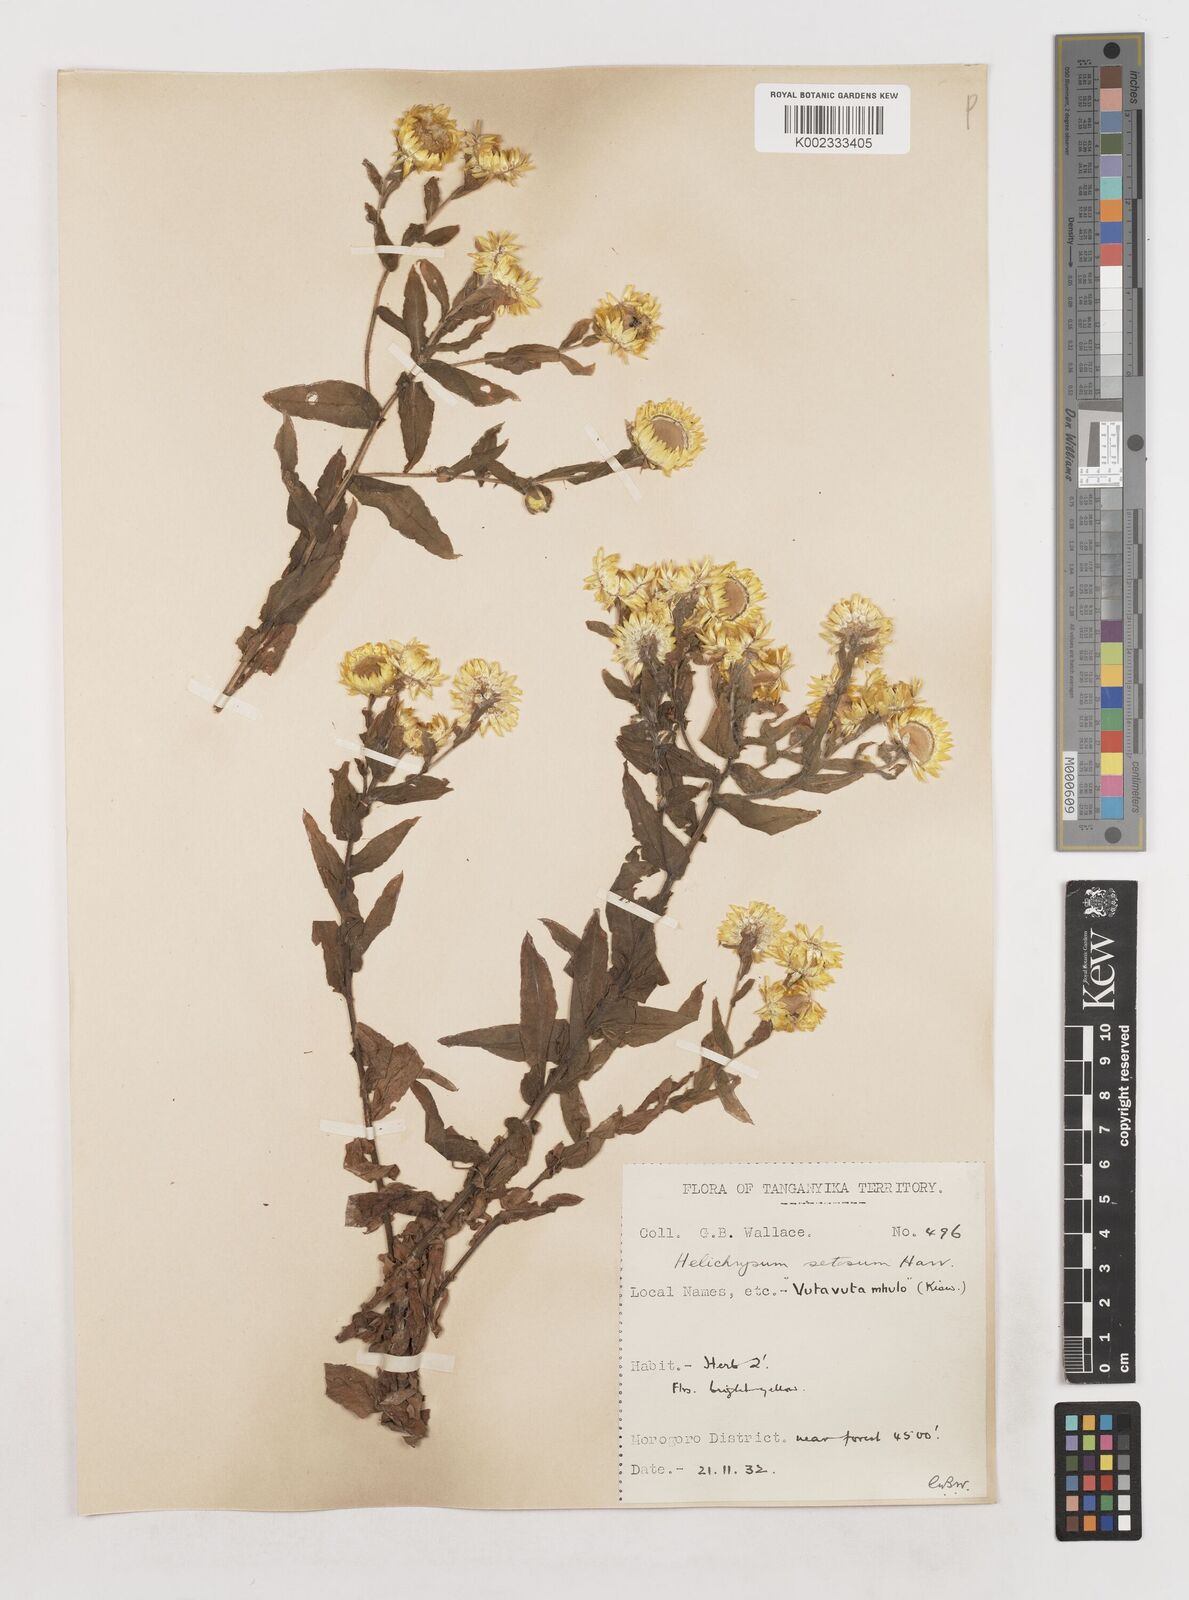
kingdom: Plantae
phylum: Tracheophyta
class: Magnoliopsida
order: Asterales
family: Asteraceae
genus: Helichrysum
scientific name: Helichrysum setosum
